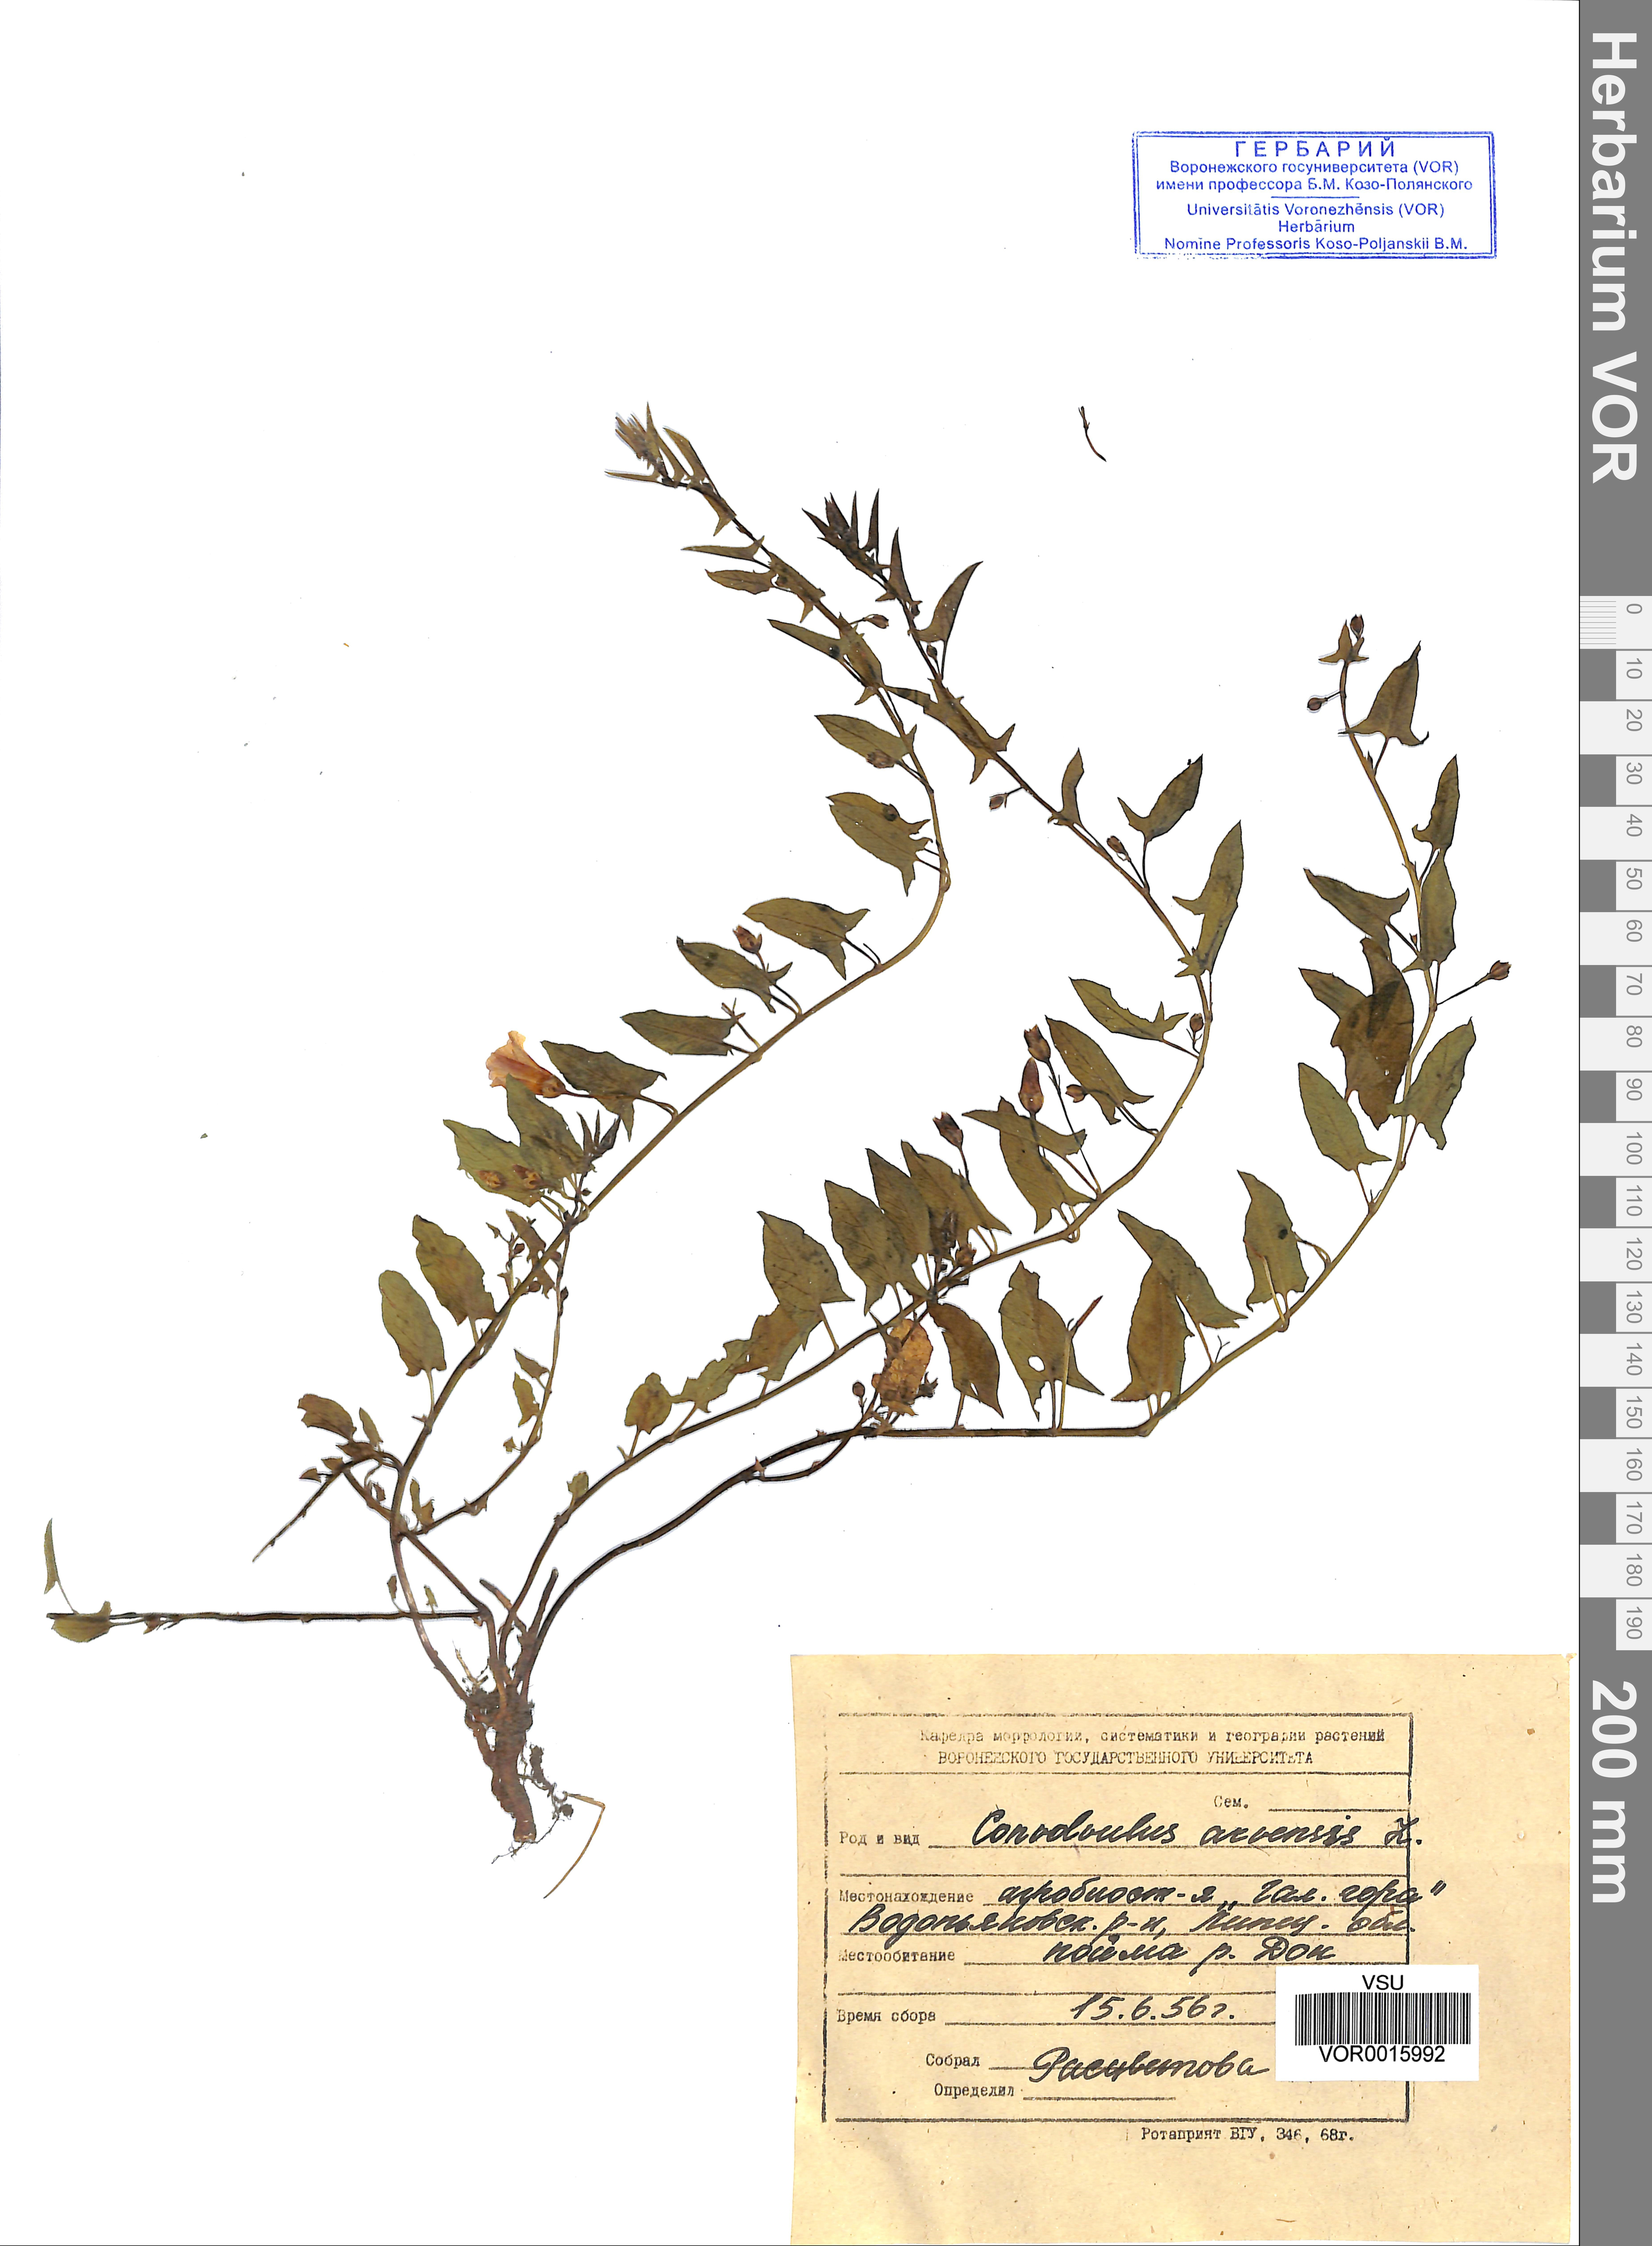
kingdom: Plantae
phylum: Tracheophyta
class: Magnoliopsida
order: Solanales
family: Convolvulaceae
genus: Convolvulus
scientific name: Convolvulus arvensis
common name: Field bindweed
